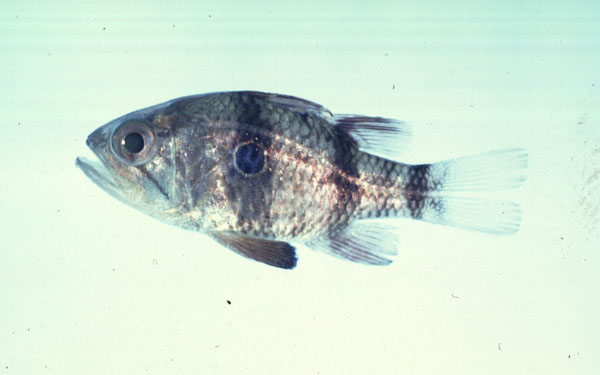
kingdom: Animalia
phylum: Chordata
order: Perciformes
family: Apogonidae
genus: Apogonichthyoides
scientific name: Apogonichthyoides nigripinnis
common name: Bullseye
